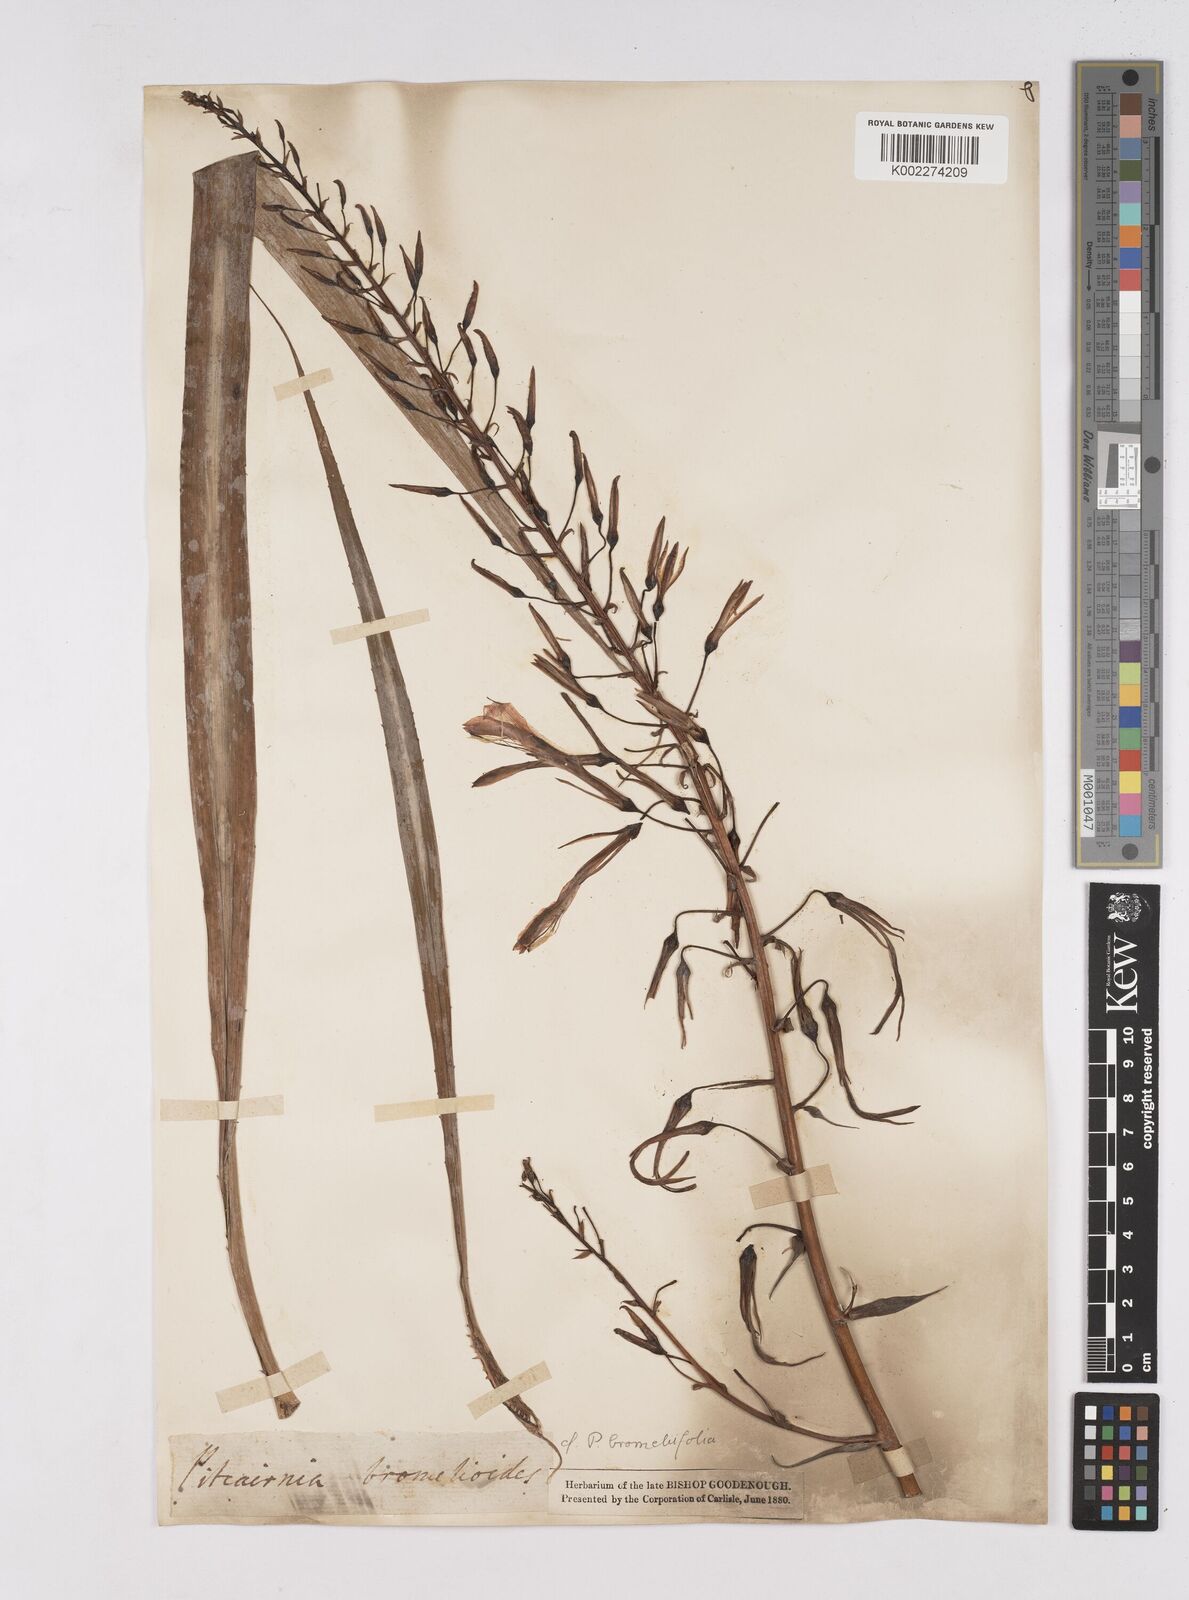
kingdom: Plantae
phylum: Tracheophyta
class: Liliopsida
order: Poales
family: Bromeliaceae
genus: Pitcairnia
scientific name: Pitcairnia bromeliifolia
